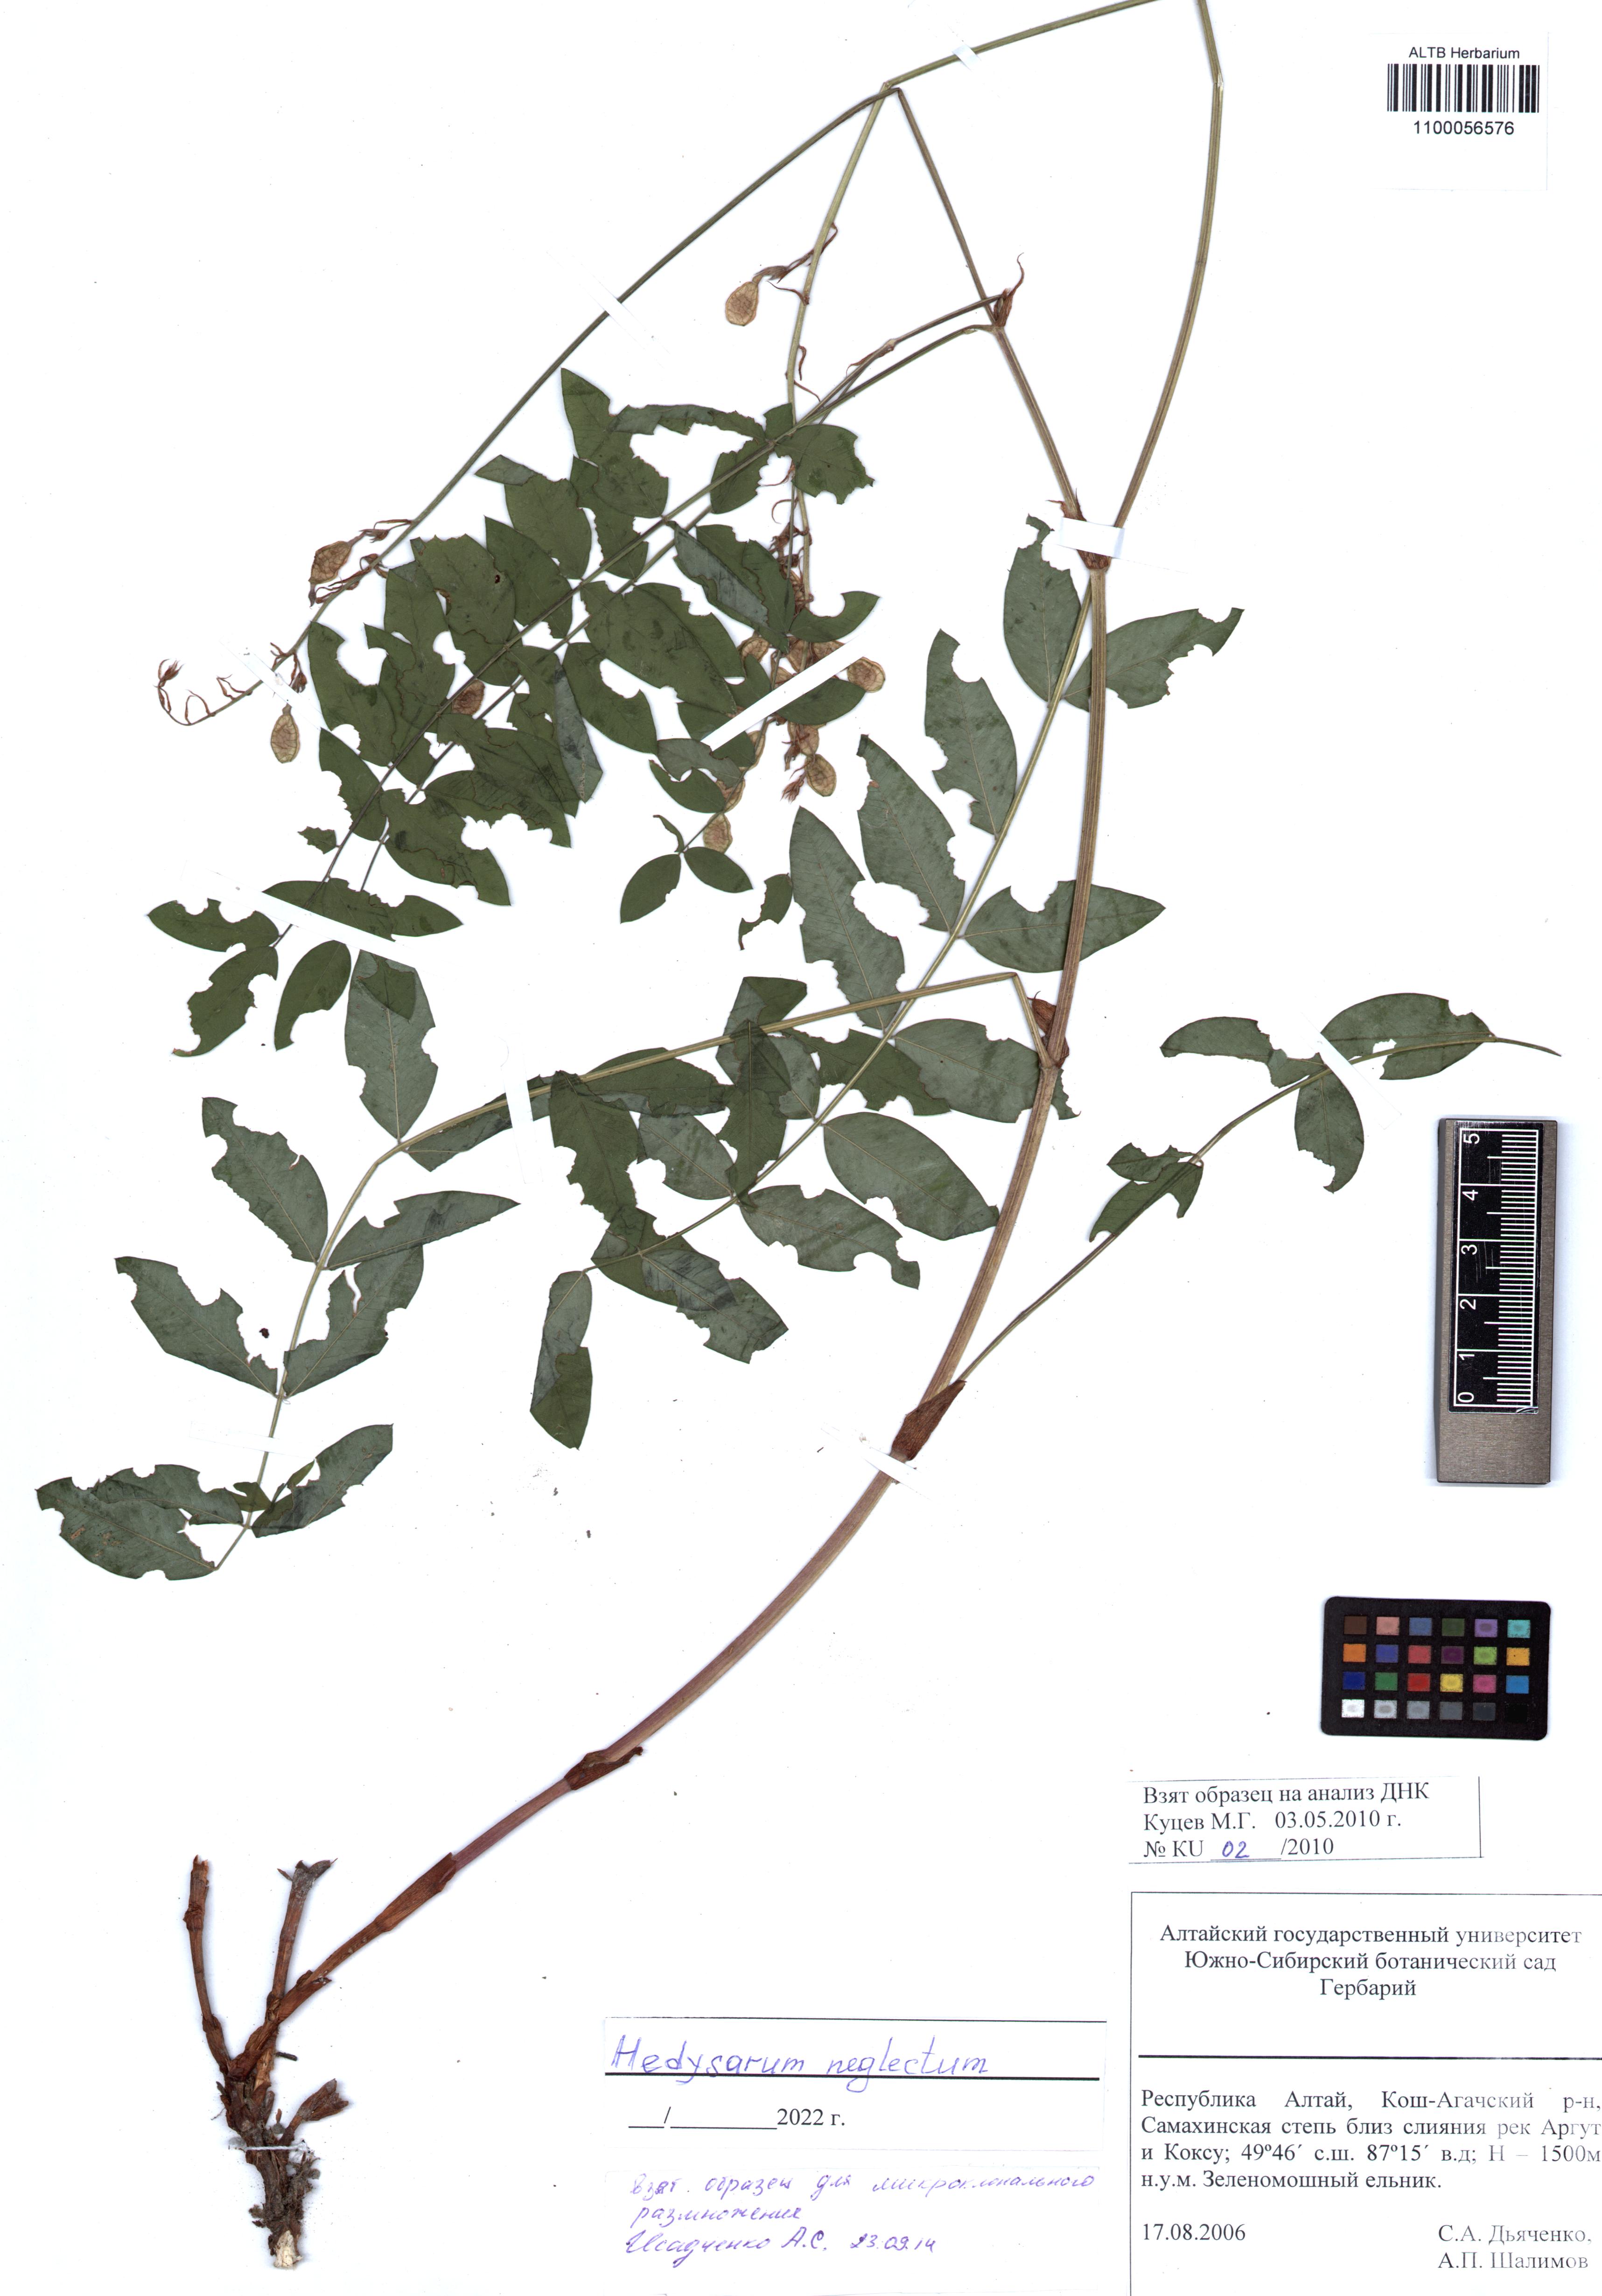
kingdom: Plantae
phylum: Tracheophyta
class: Magnoliopsida
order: Fabales
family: Fabaceae
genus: Hedysarum
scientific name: Hedysarum neglectum
